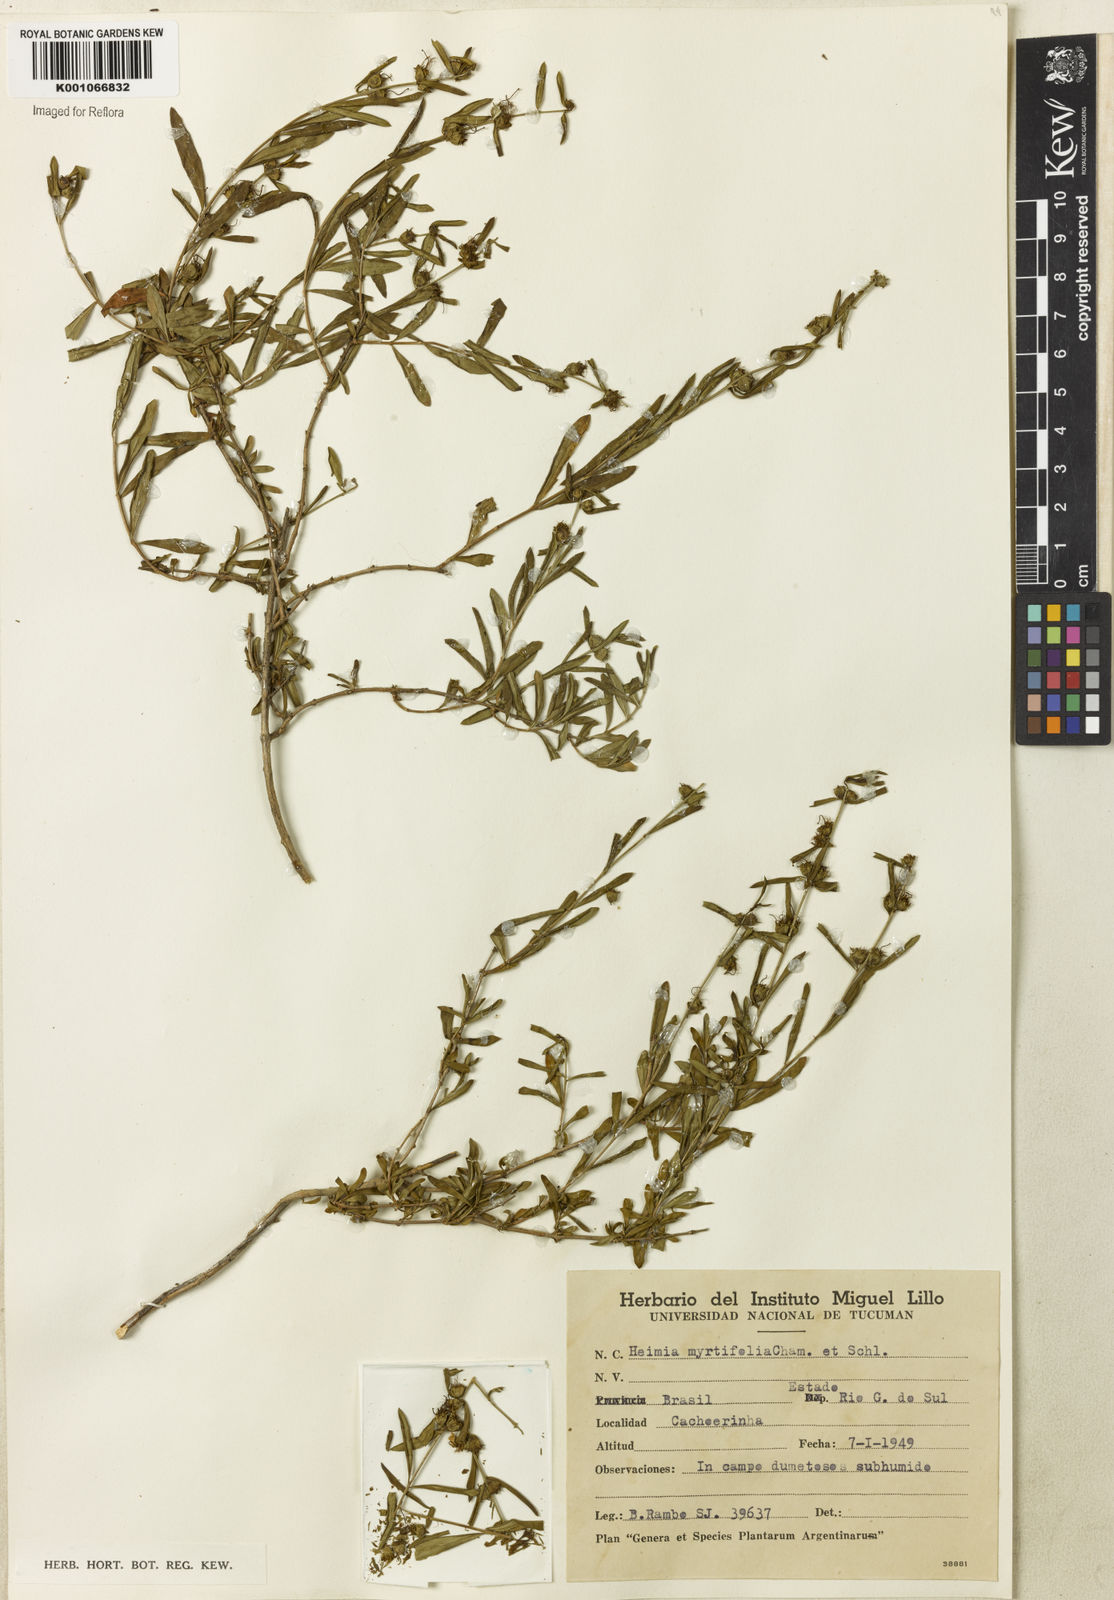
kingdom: Plantae
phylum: Tracheophyta
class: Magnoliopsida
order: Myrtales
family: Lythraceae
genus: Heimia
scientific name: Heimia apetala
